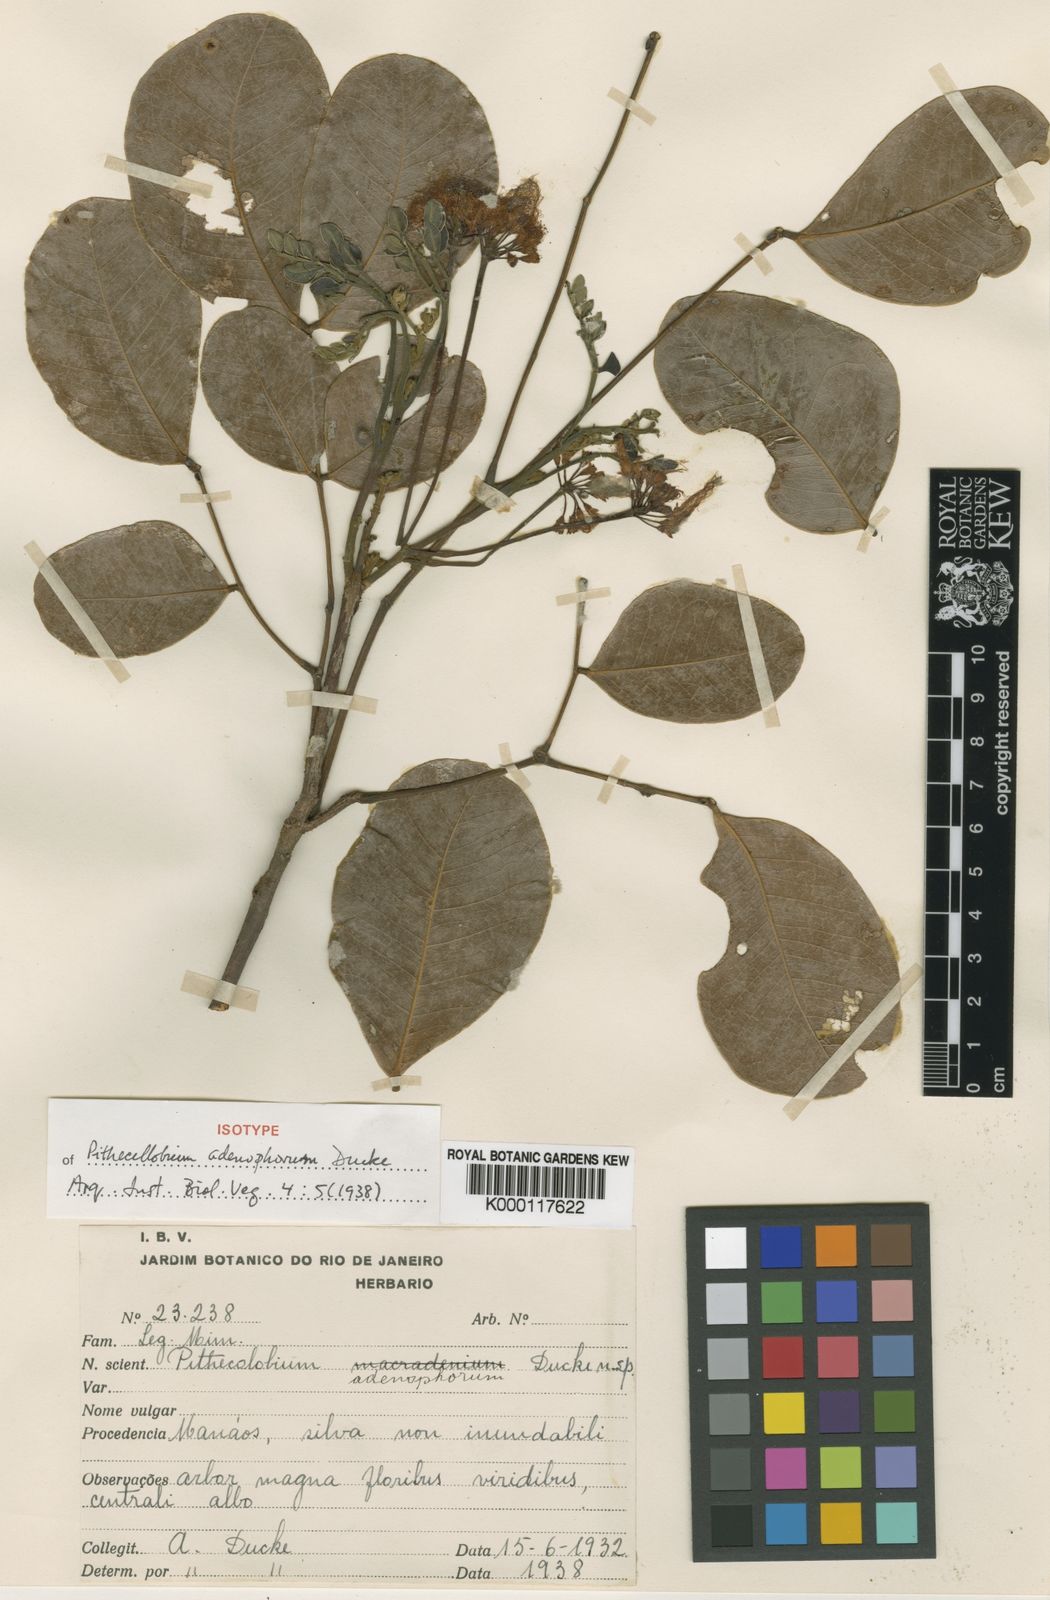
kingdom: Plantae
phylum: Tracheophyta
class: Magnoliopsida
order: Fabales
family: Fabaceae
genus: Jupunba
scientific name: Jupunba adenophora
